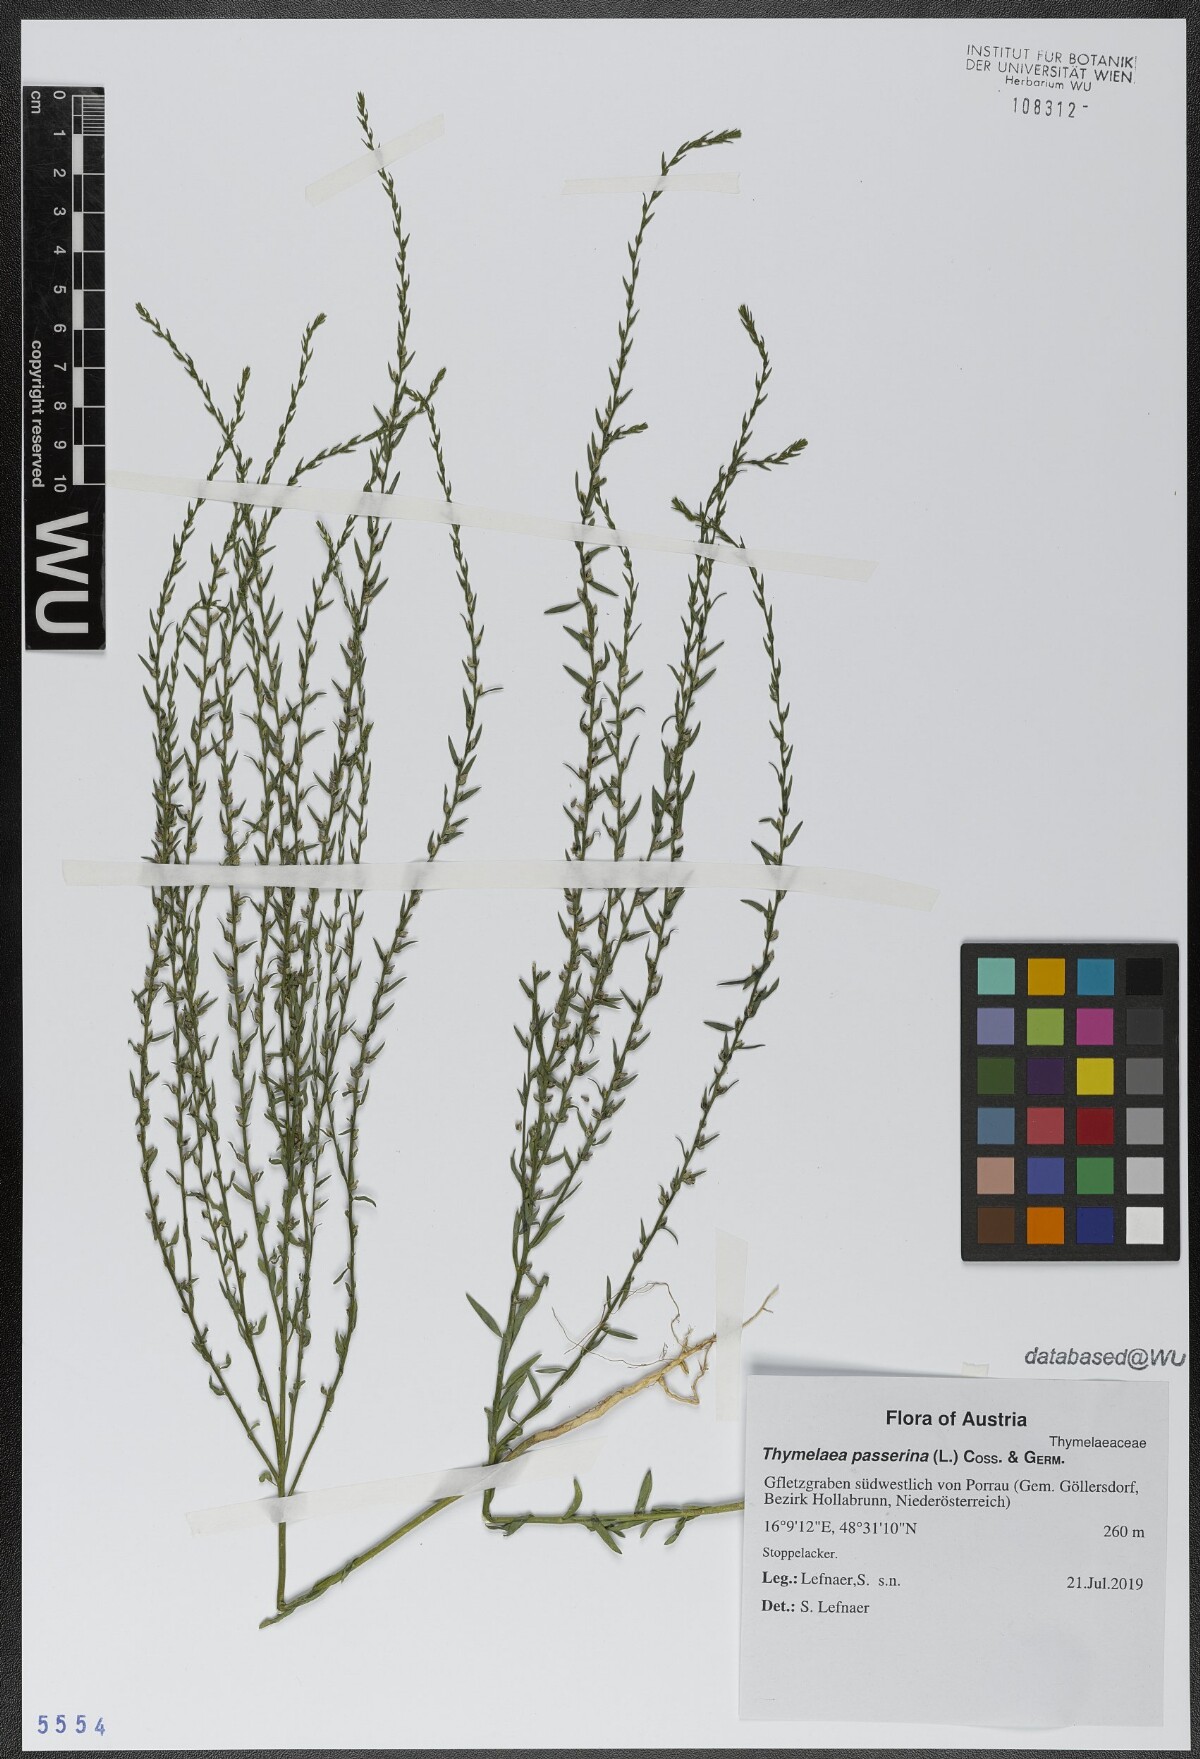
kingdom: Plantae
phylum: Tracheophyta
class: Magnoliopsida
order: Malvales
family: Thymelaeaceae
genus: Thymelaea
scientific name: Thymelaea passerina
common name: Annual thymelaea
